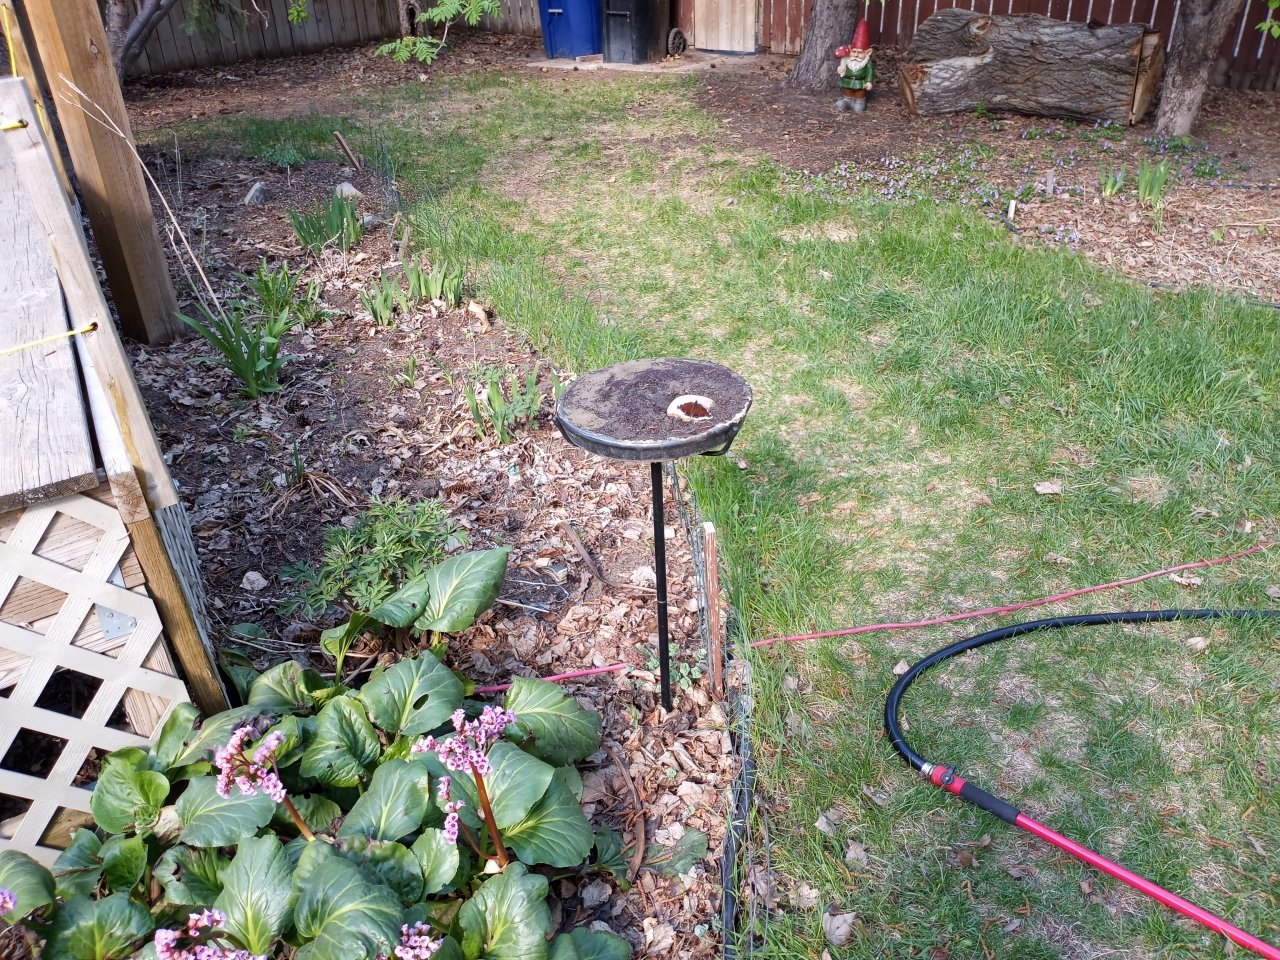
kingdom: Animalia
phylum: Arthropoda
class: Insecta
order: Lepidoptera
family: Nymphalidae
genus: Nymphalis
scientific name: Nymphalis antiopa
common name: Mourning Cloak
